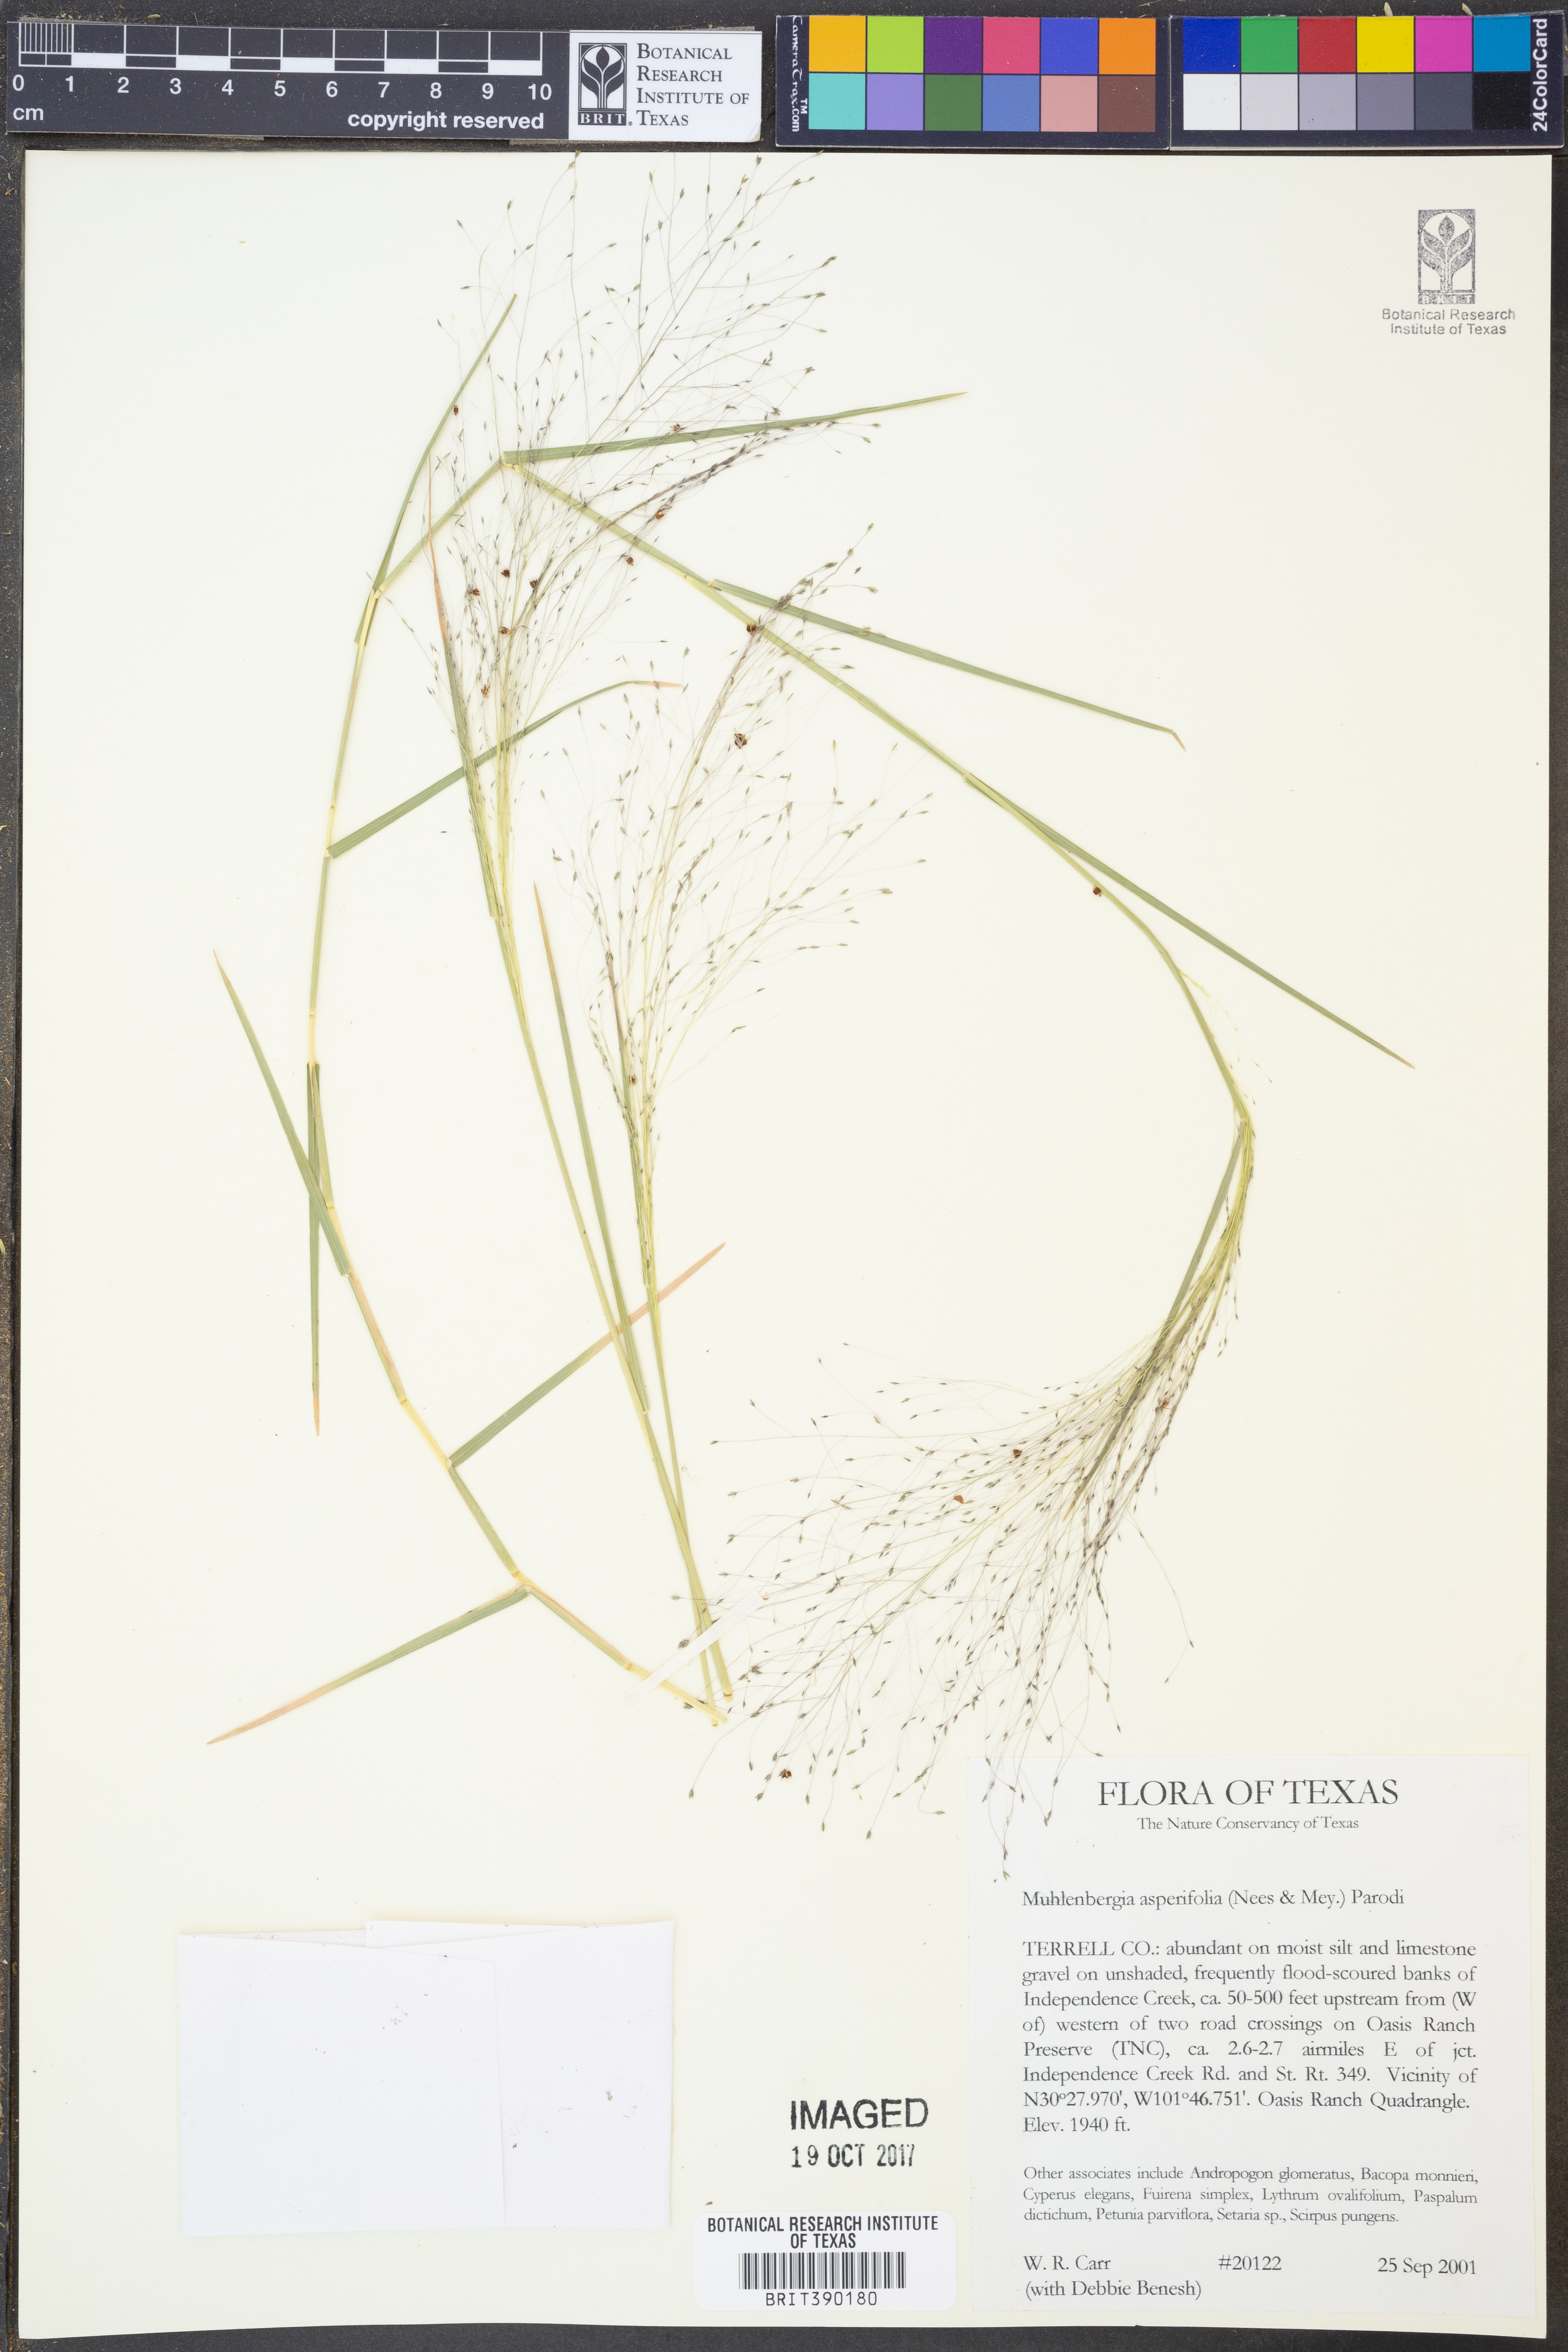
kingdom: Plantae
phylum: Tracheophyta
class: Liliopsida
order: Poales
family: Poaceae
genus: Muhlenbergia
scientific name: Muhlenbergia asperifolia
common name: Alkali muhly
